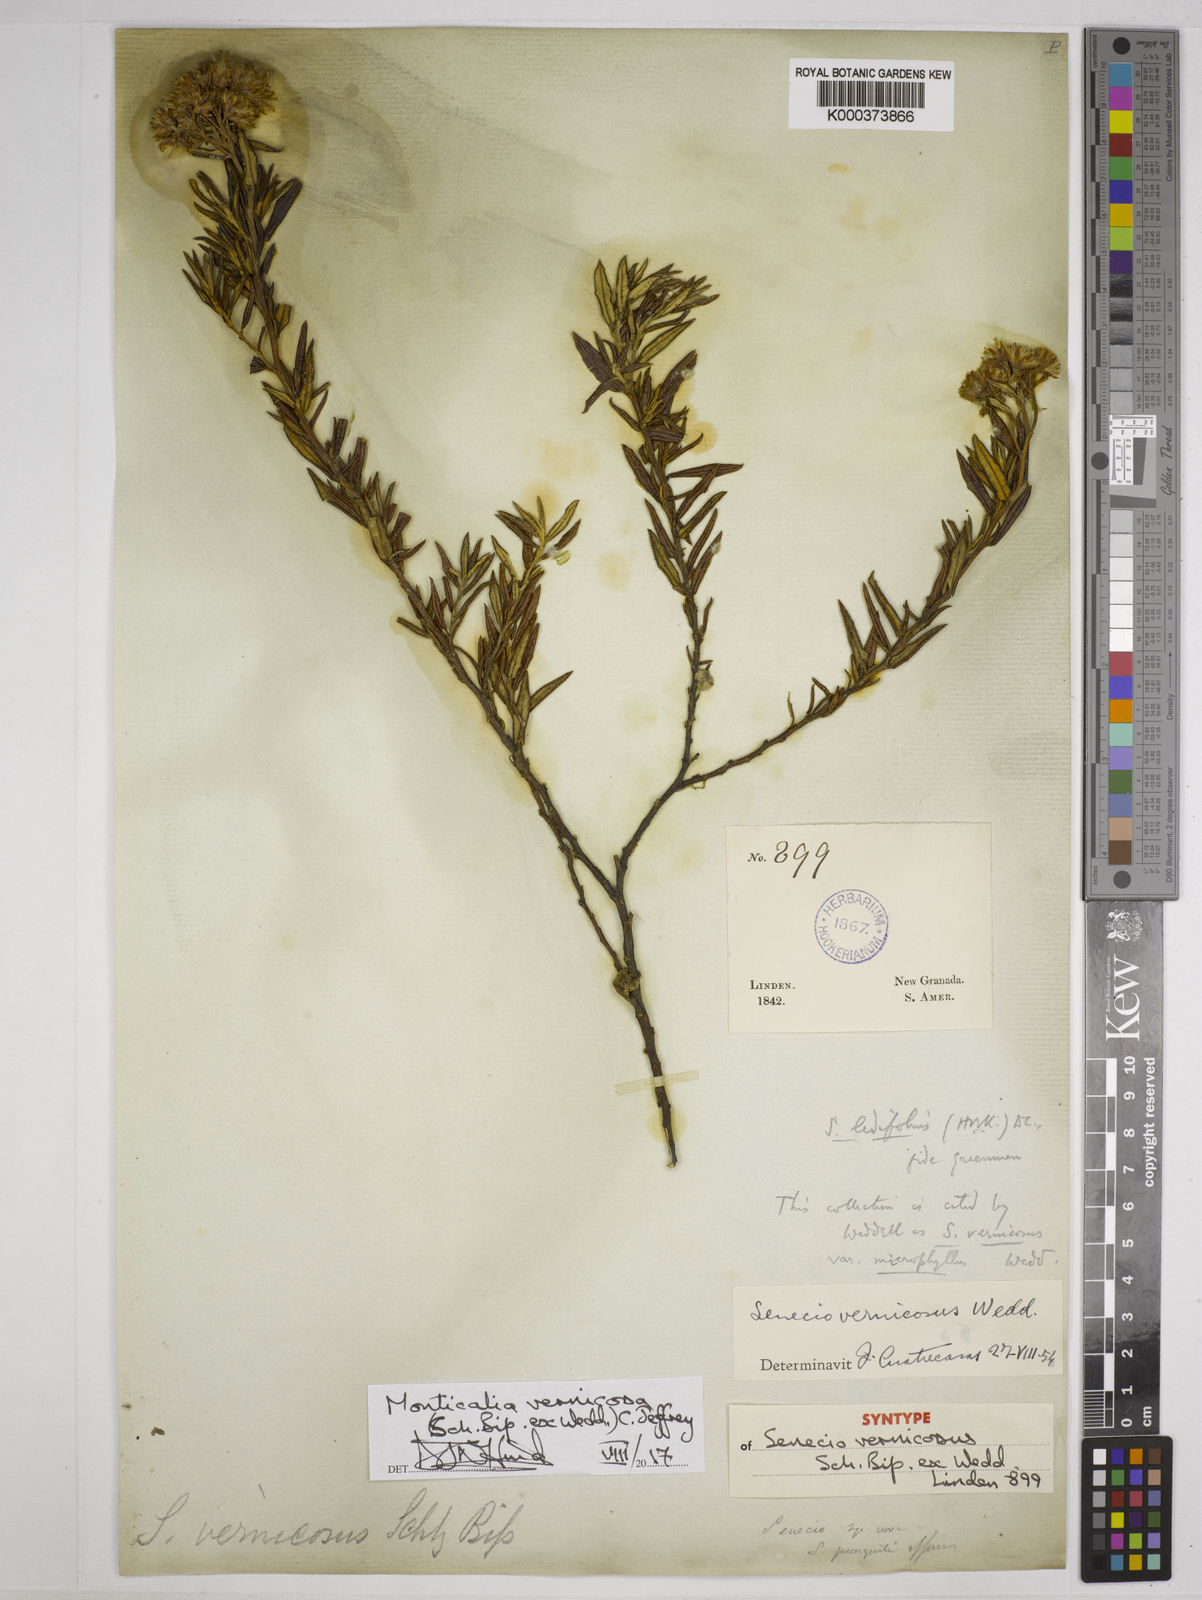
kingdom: Plantae
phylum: Tracheophyta
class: Magnoliopsida
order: Asterales
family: Asteraceae
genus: Monticalia
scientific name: Monticalia vernicosa
